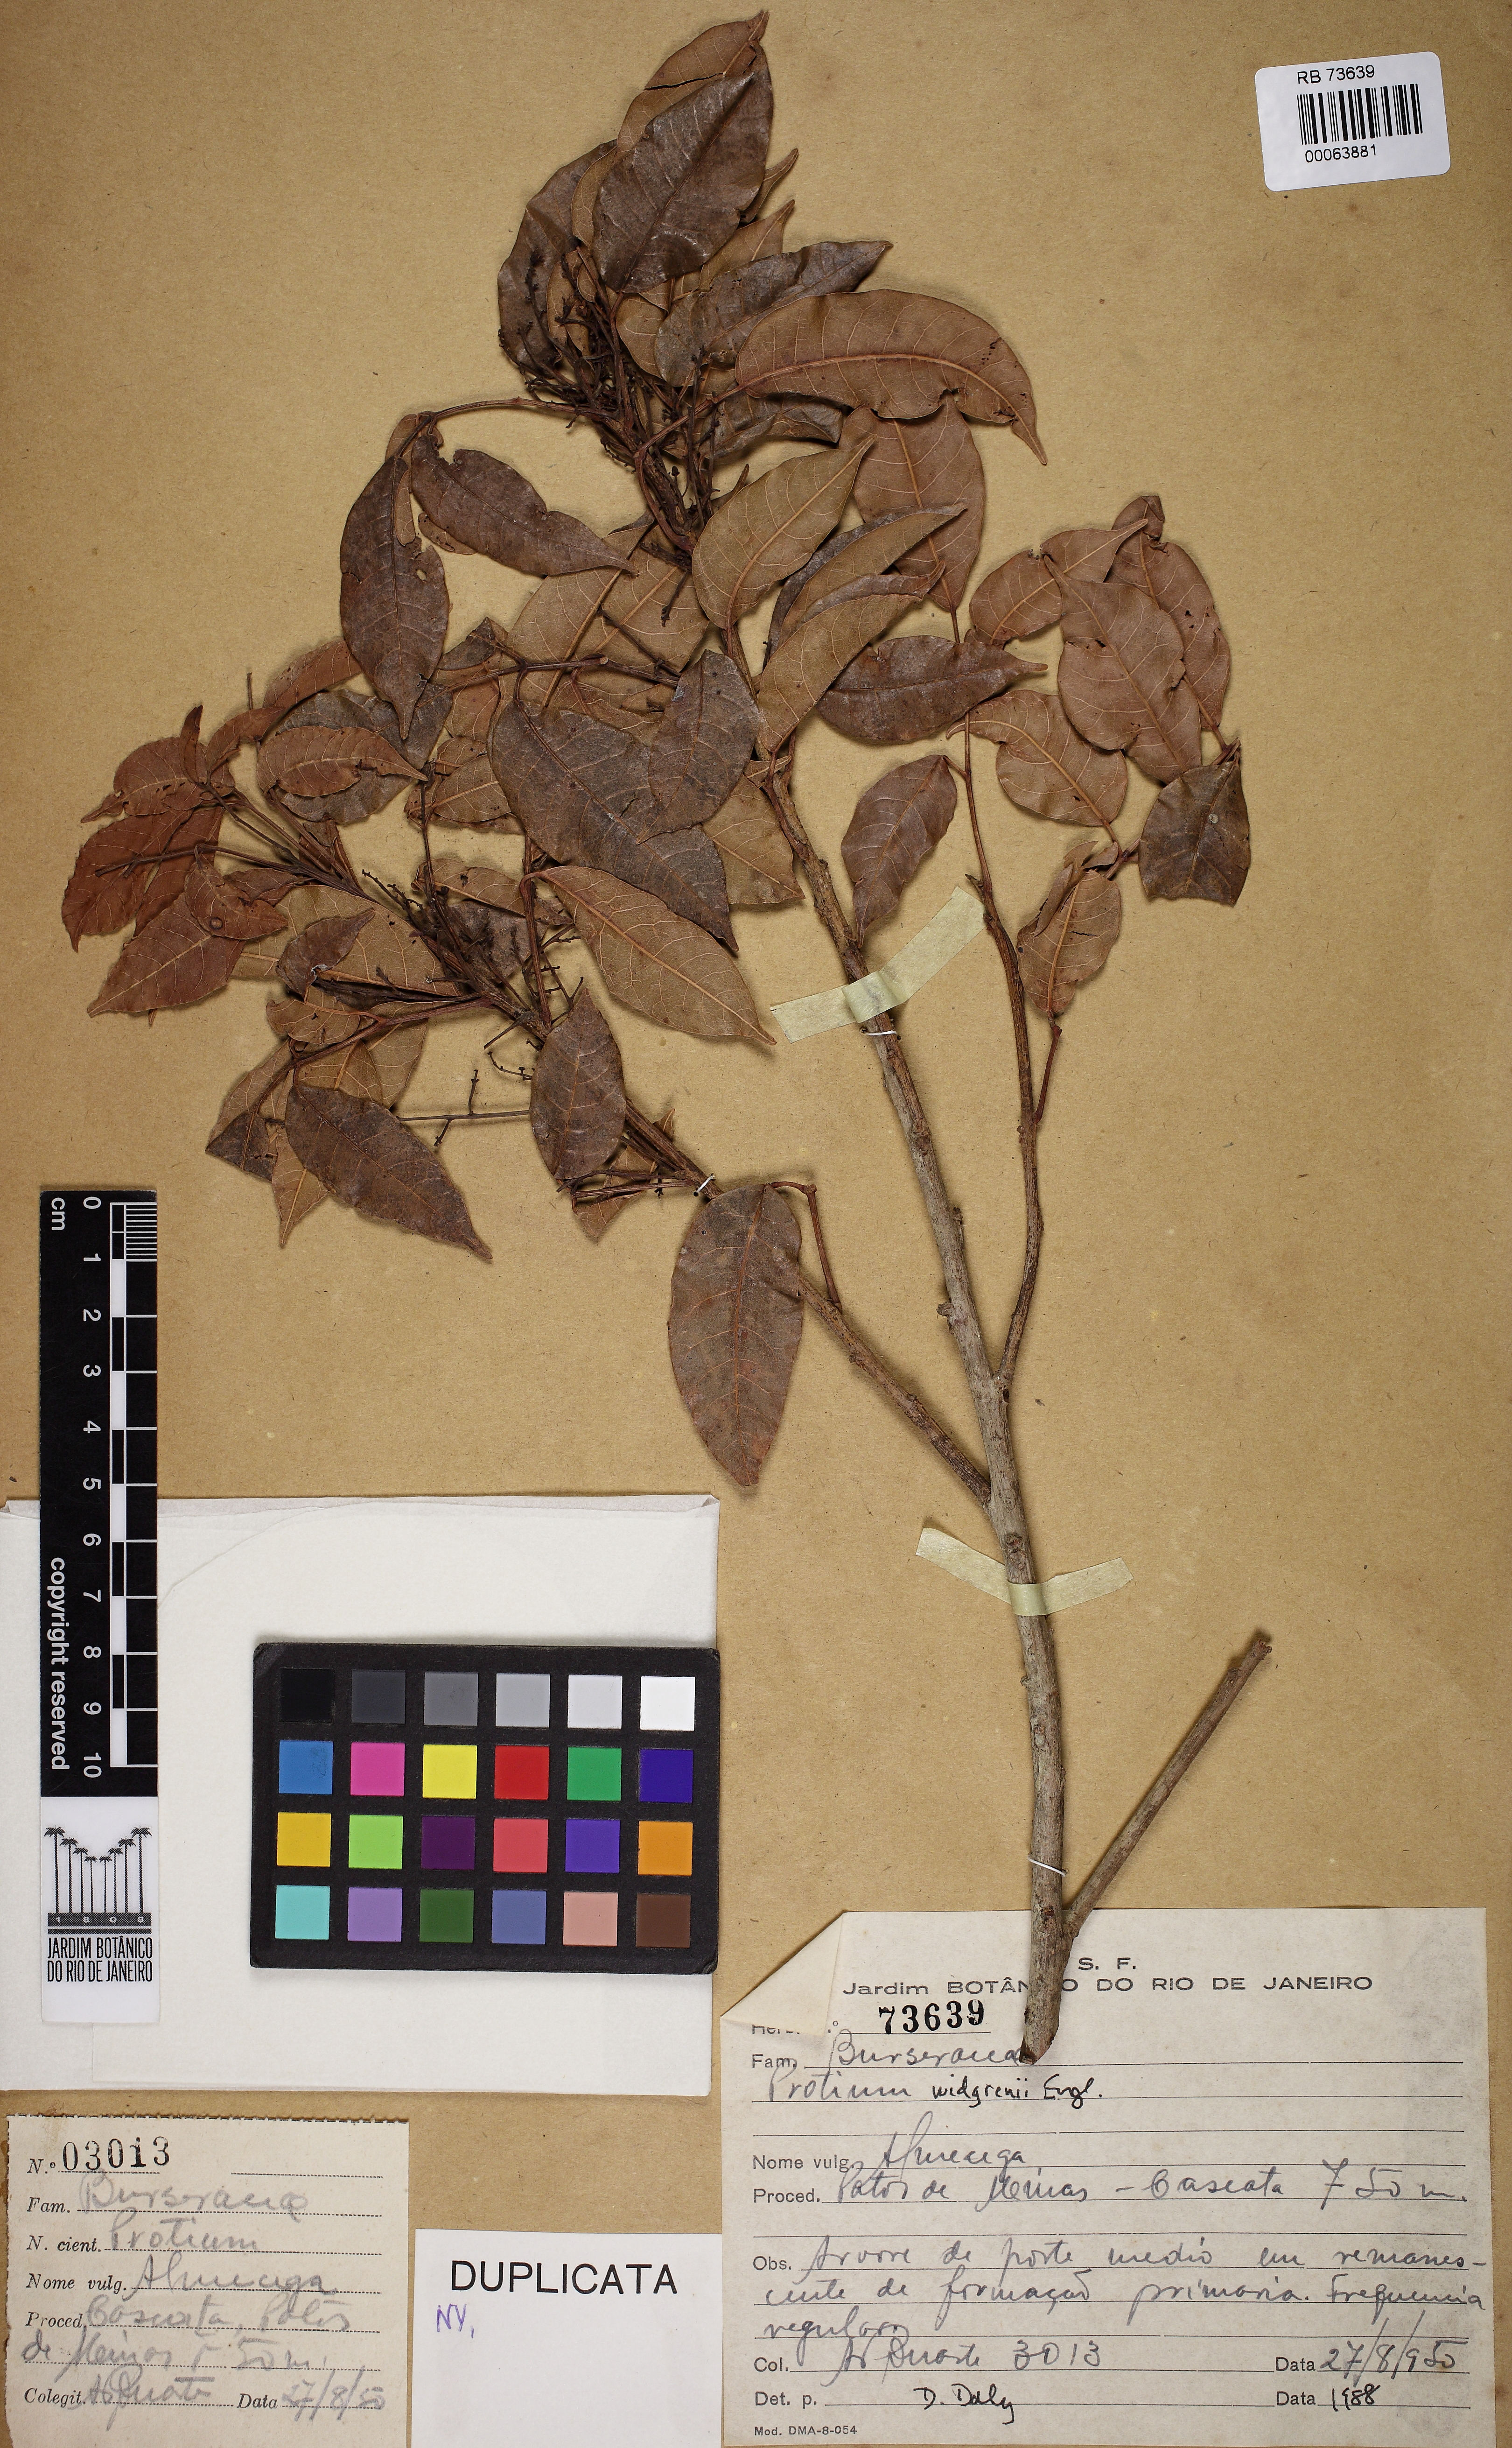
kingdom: Plantae
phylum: Tracheophyta
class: Magnoliopsida
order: Sapindales
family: Burseraceae
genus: Protium
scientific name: Protium widgrenii
